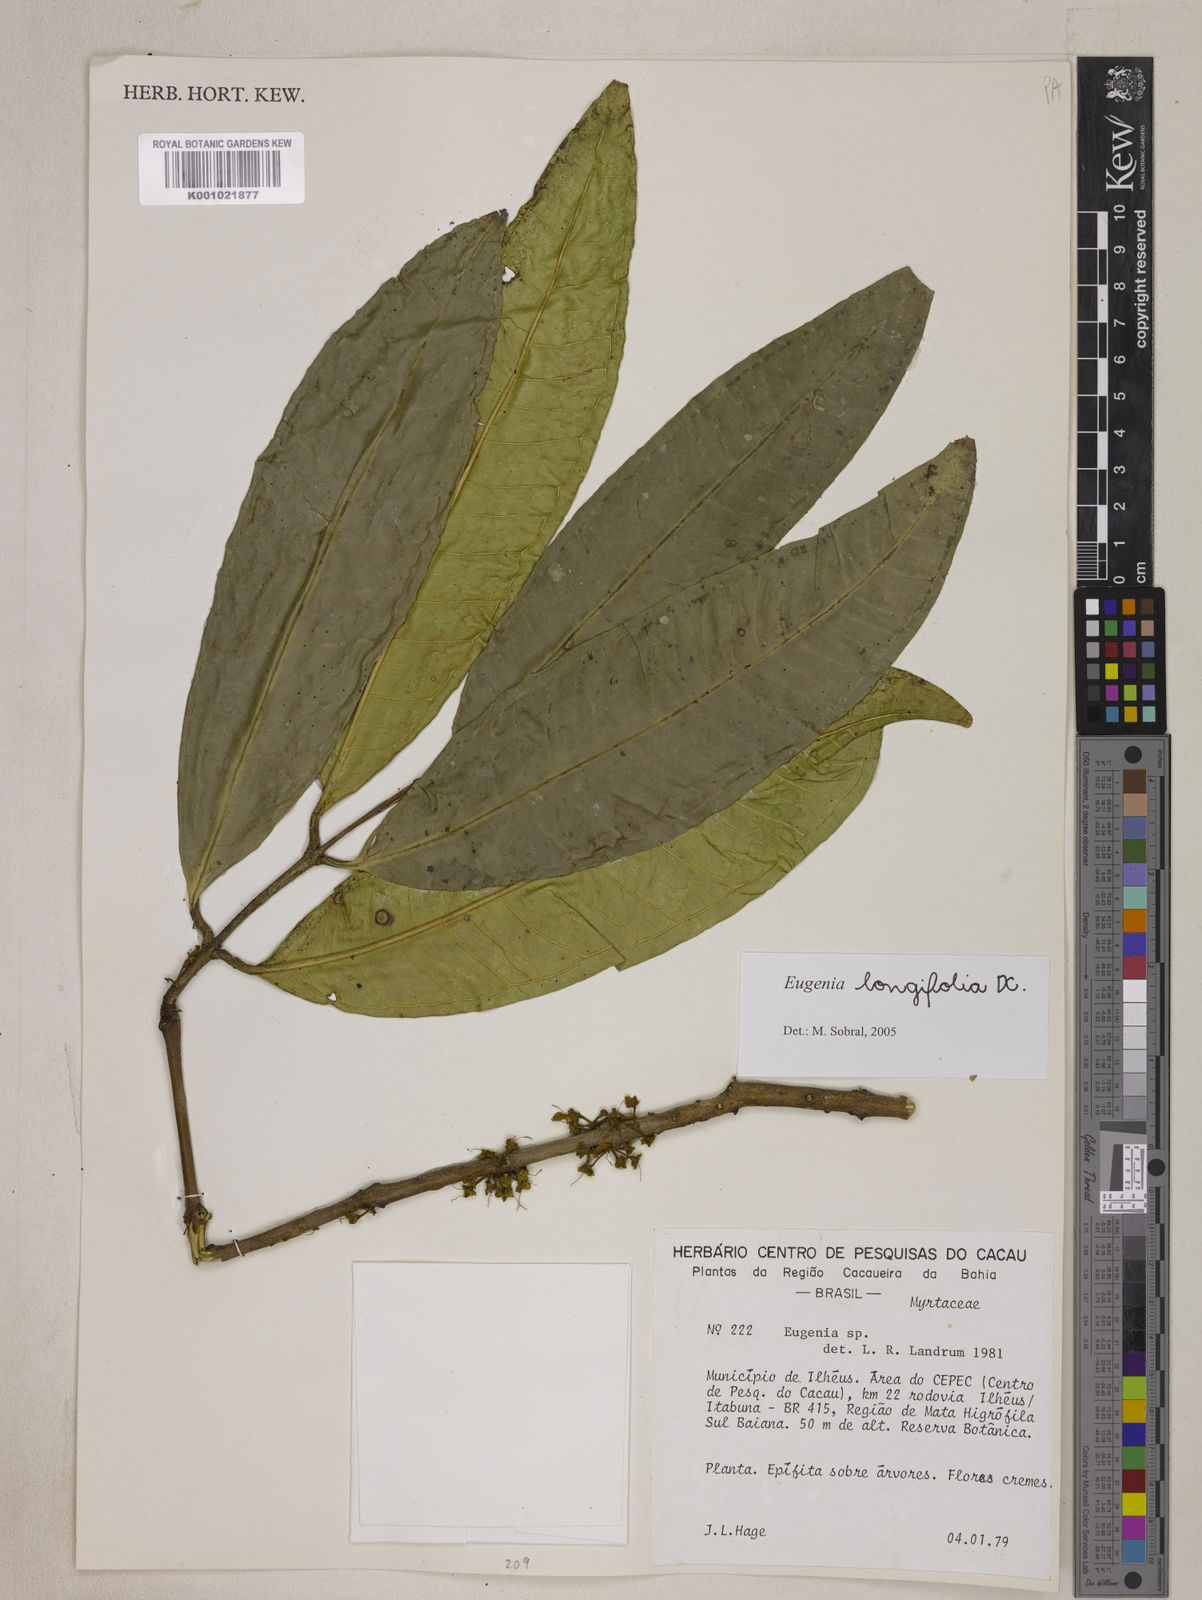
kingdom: Plantae
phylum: Tracheophyta
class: Magnoliopsida
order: Myrtales
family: Myrtaceae
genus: Eugenia
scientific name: Eugenia longifolia
